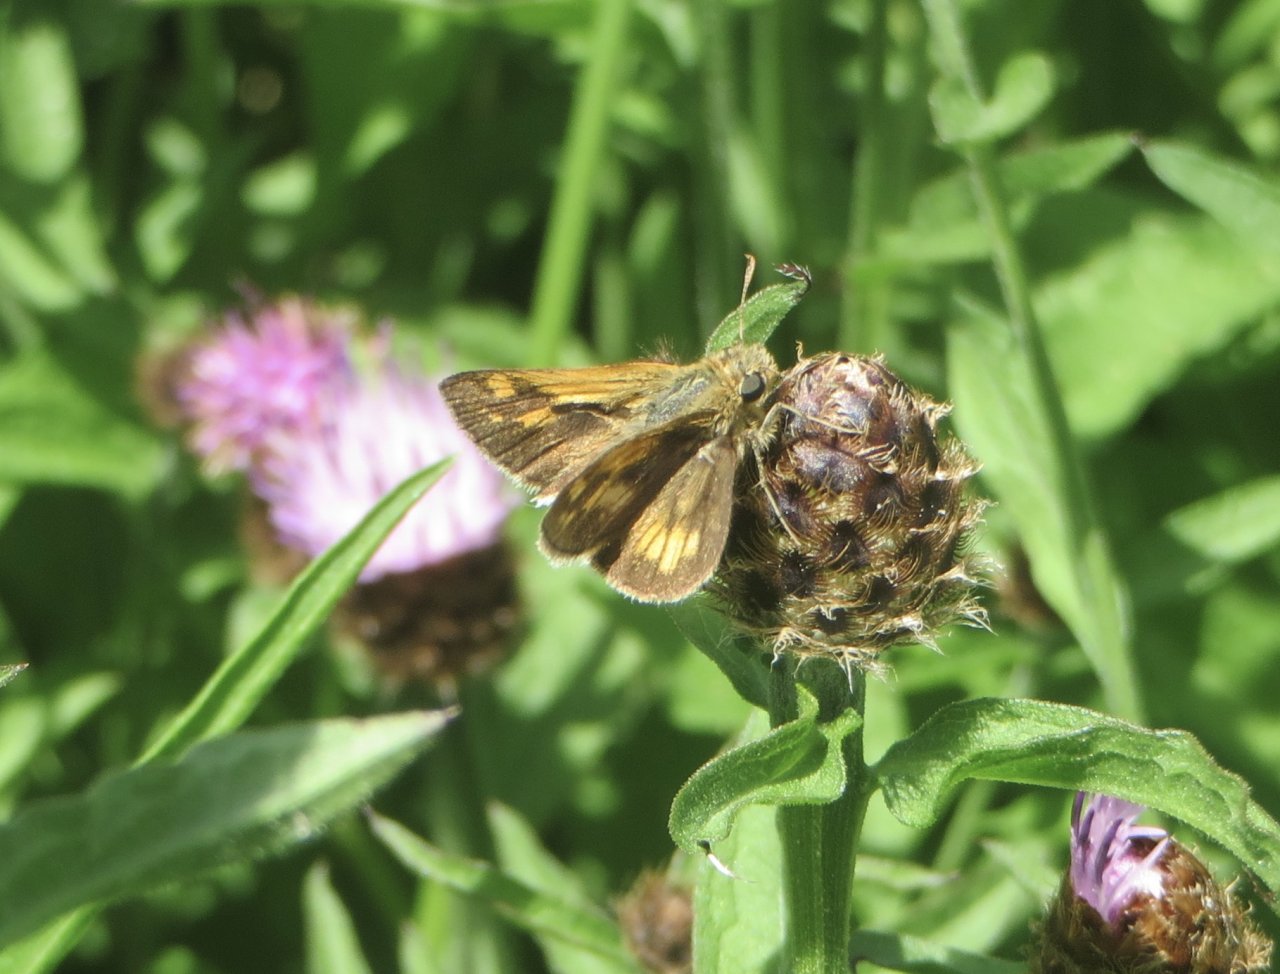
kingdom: Animalia
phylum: Arthropoda
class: Insecta
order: Lepidoptera
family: Hesperiidae
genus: Polites
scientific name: Polites coras
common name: Peck's Skipper
